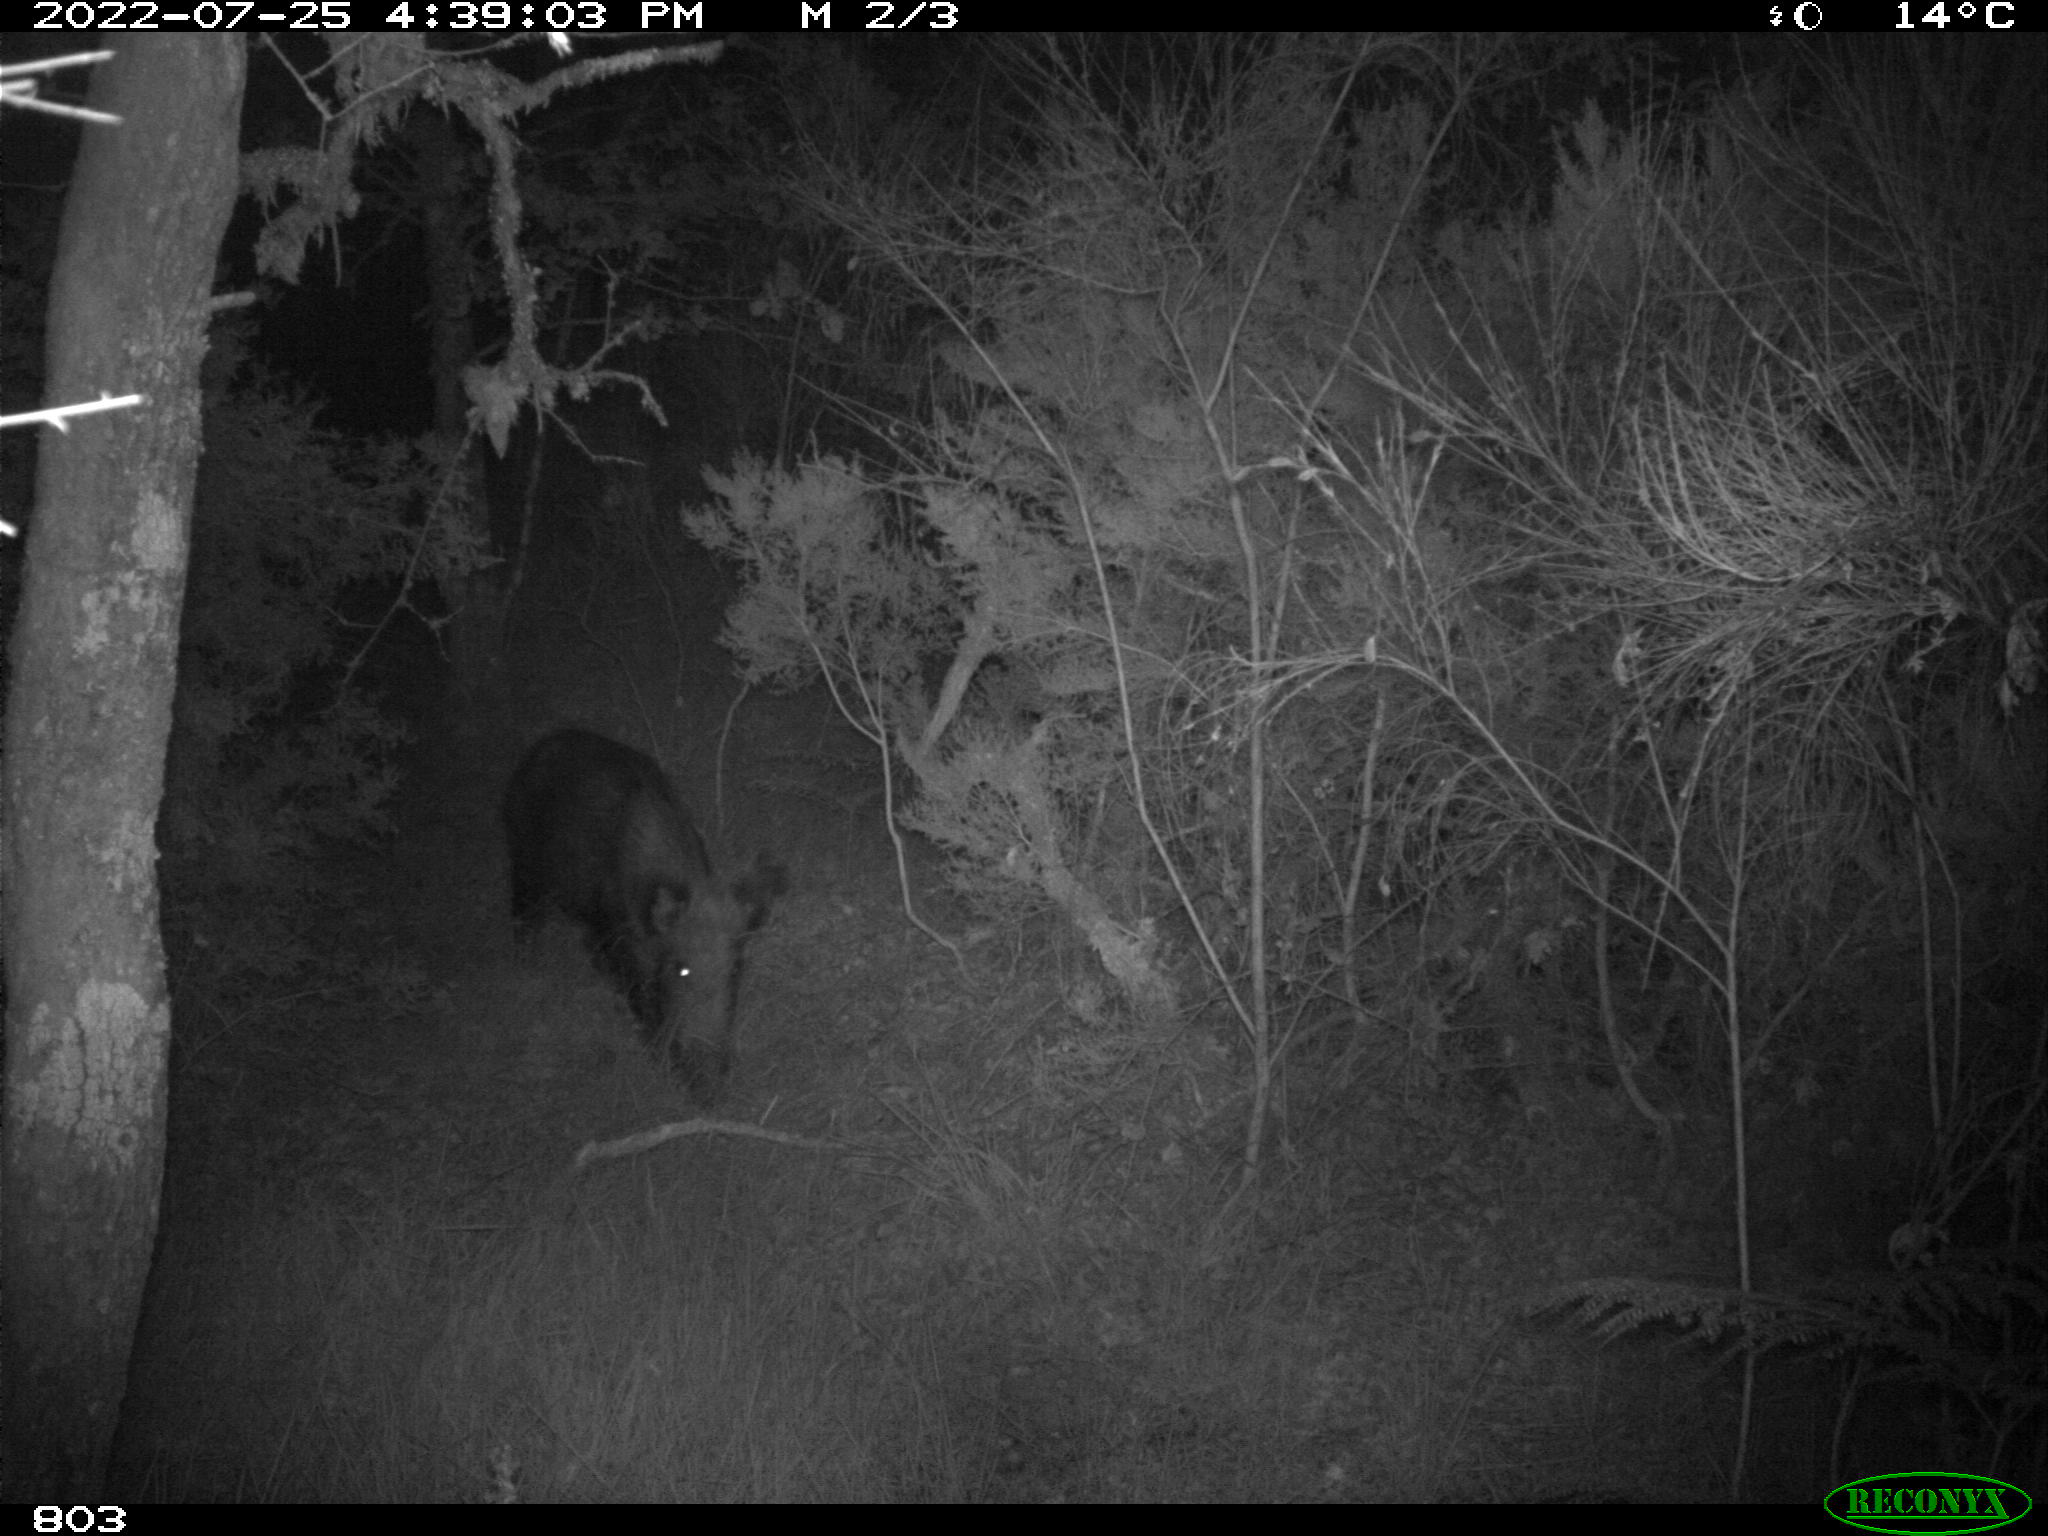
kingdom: Animalia
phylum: Chordata
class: Mammalia
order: Artiodactyla
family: Suidae
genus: Sus
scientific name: Sus scrofa
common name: Wild boar
